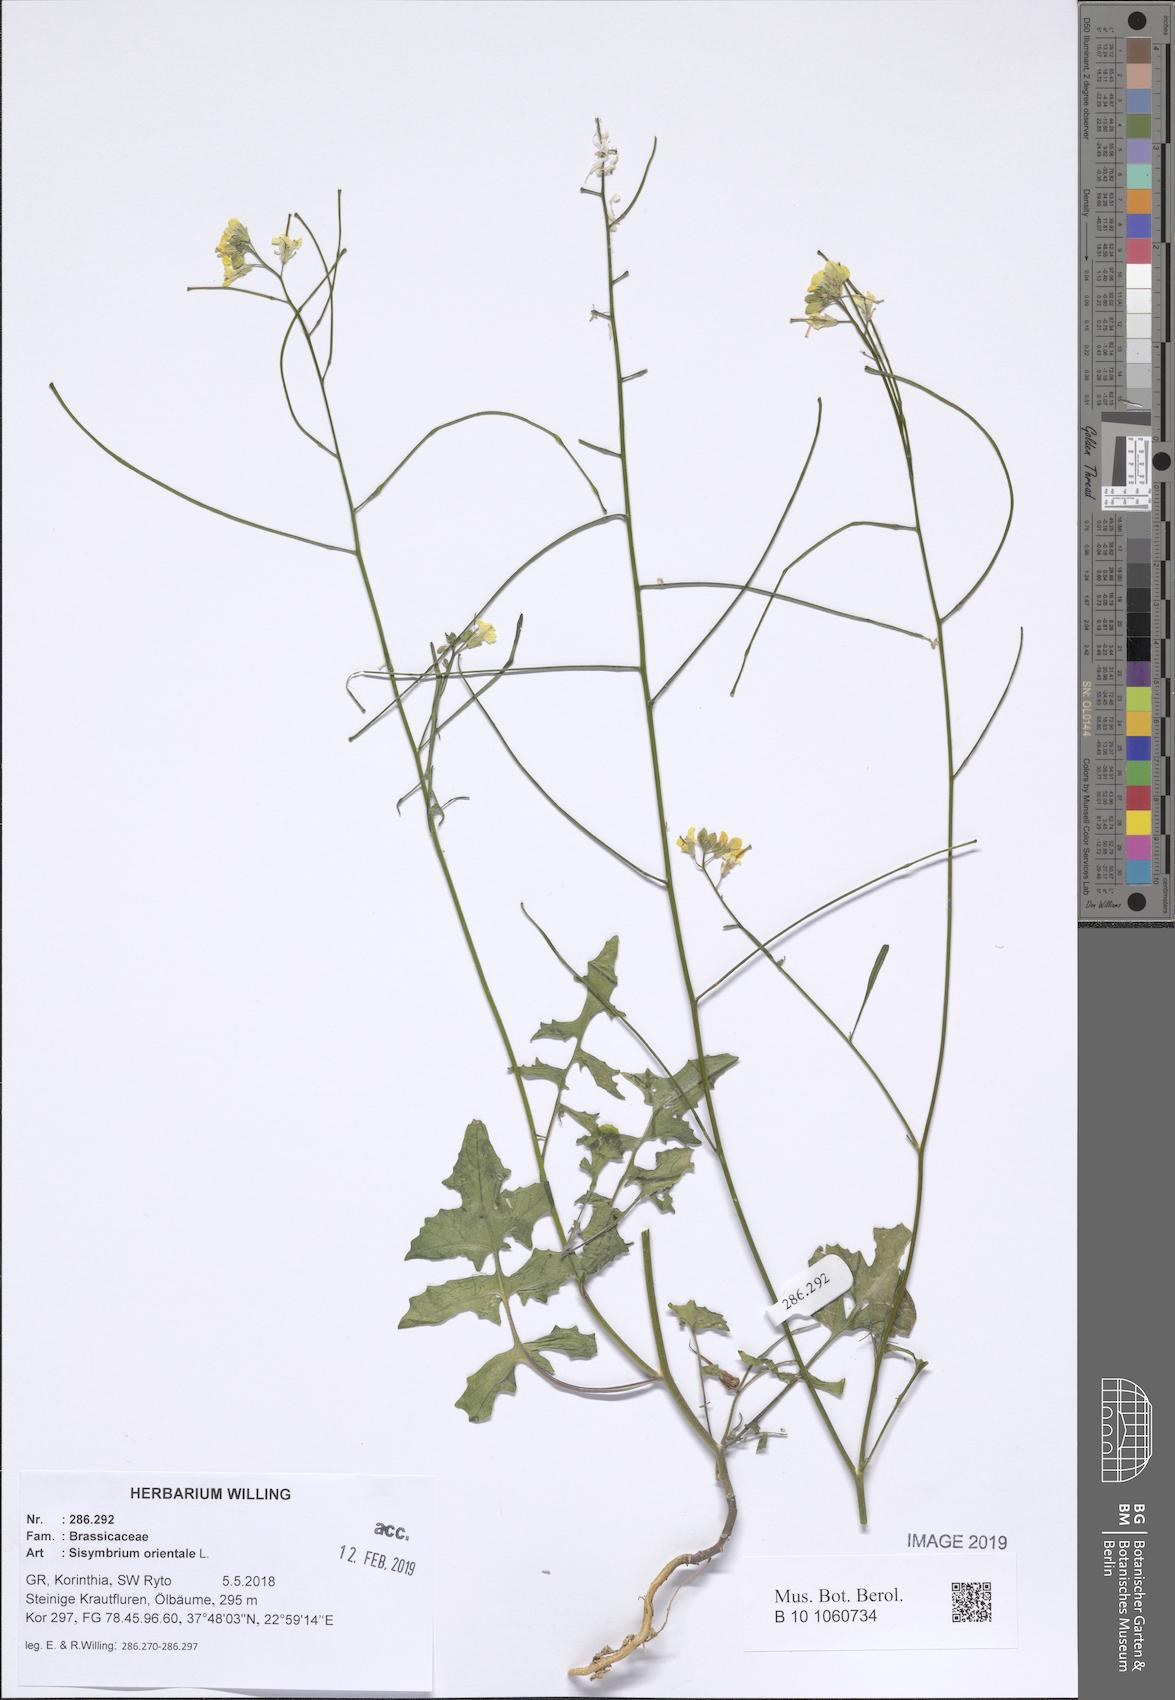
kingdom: Plantae
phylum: Tracheophyta
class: Magnoliopsida
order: Brassicales
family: Brassicaceae
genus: Sisymbrium
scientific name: Sisymbrium orientale
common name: Eastern rocket
